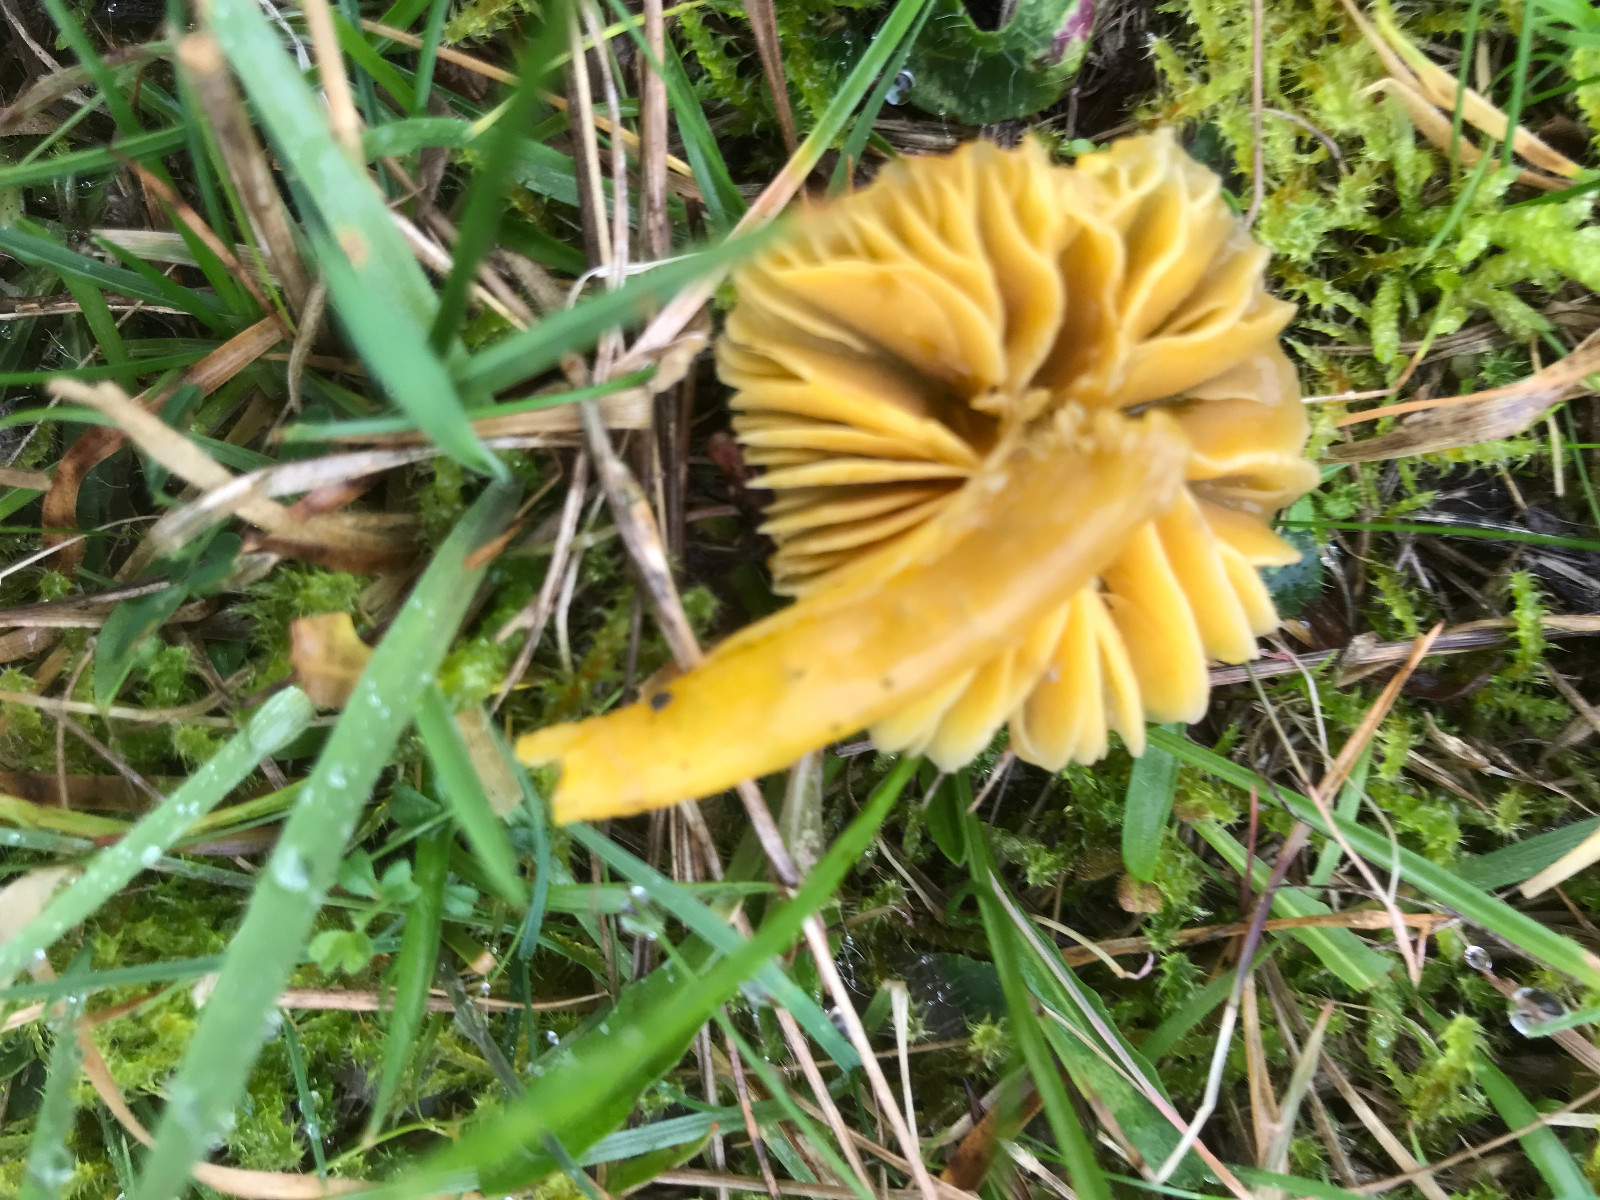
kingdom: Fungi
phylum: Basidiomycota
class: Agaricomycetes
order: Agaricales
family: Hygrophoraceae
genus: Hygrocybe
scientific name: Hygrocybe ceracea
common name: voksgul vokshat
